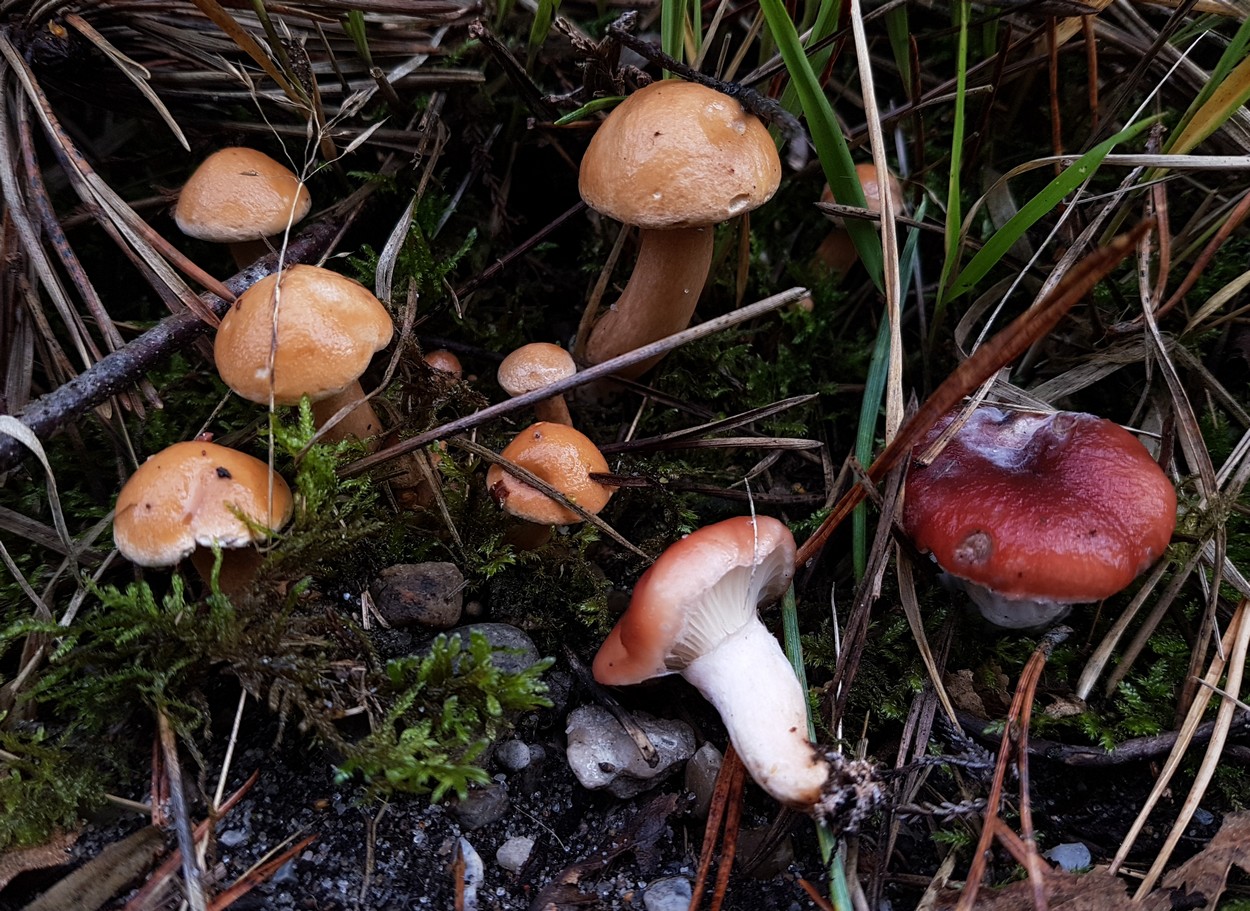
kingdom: Fungi
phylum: Basidiomycota
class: Agaricomycetes
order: Boletales
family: Gomphidiaceae
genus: Gomphidius
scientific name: Gomphidius roseus
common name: rosenrød slimslør
